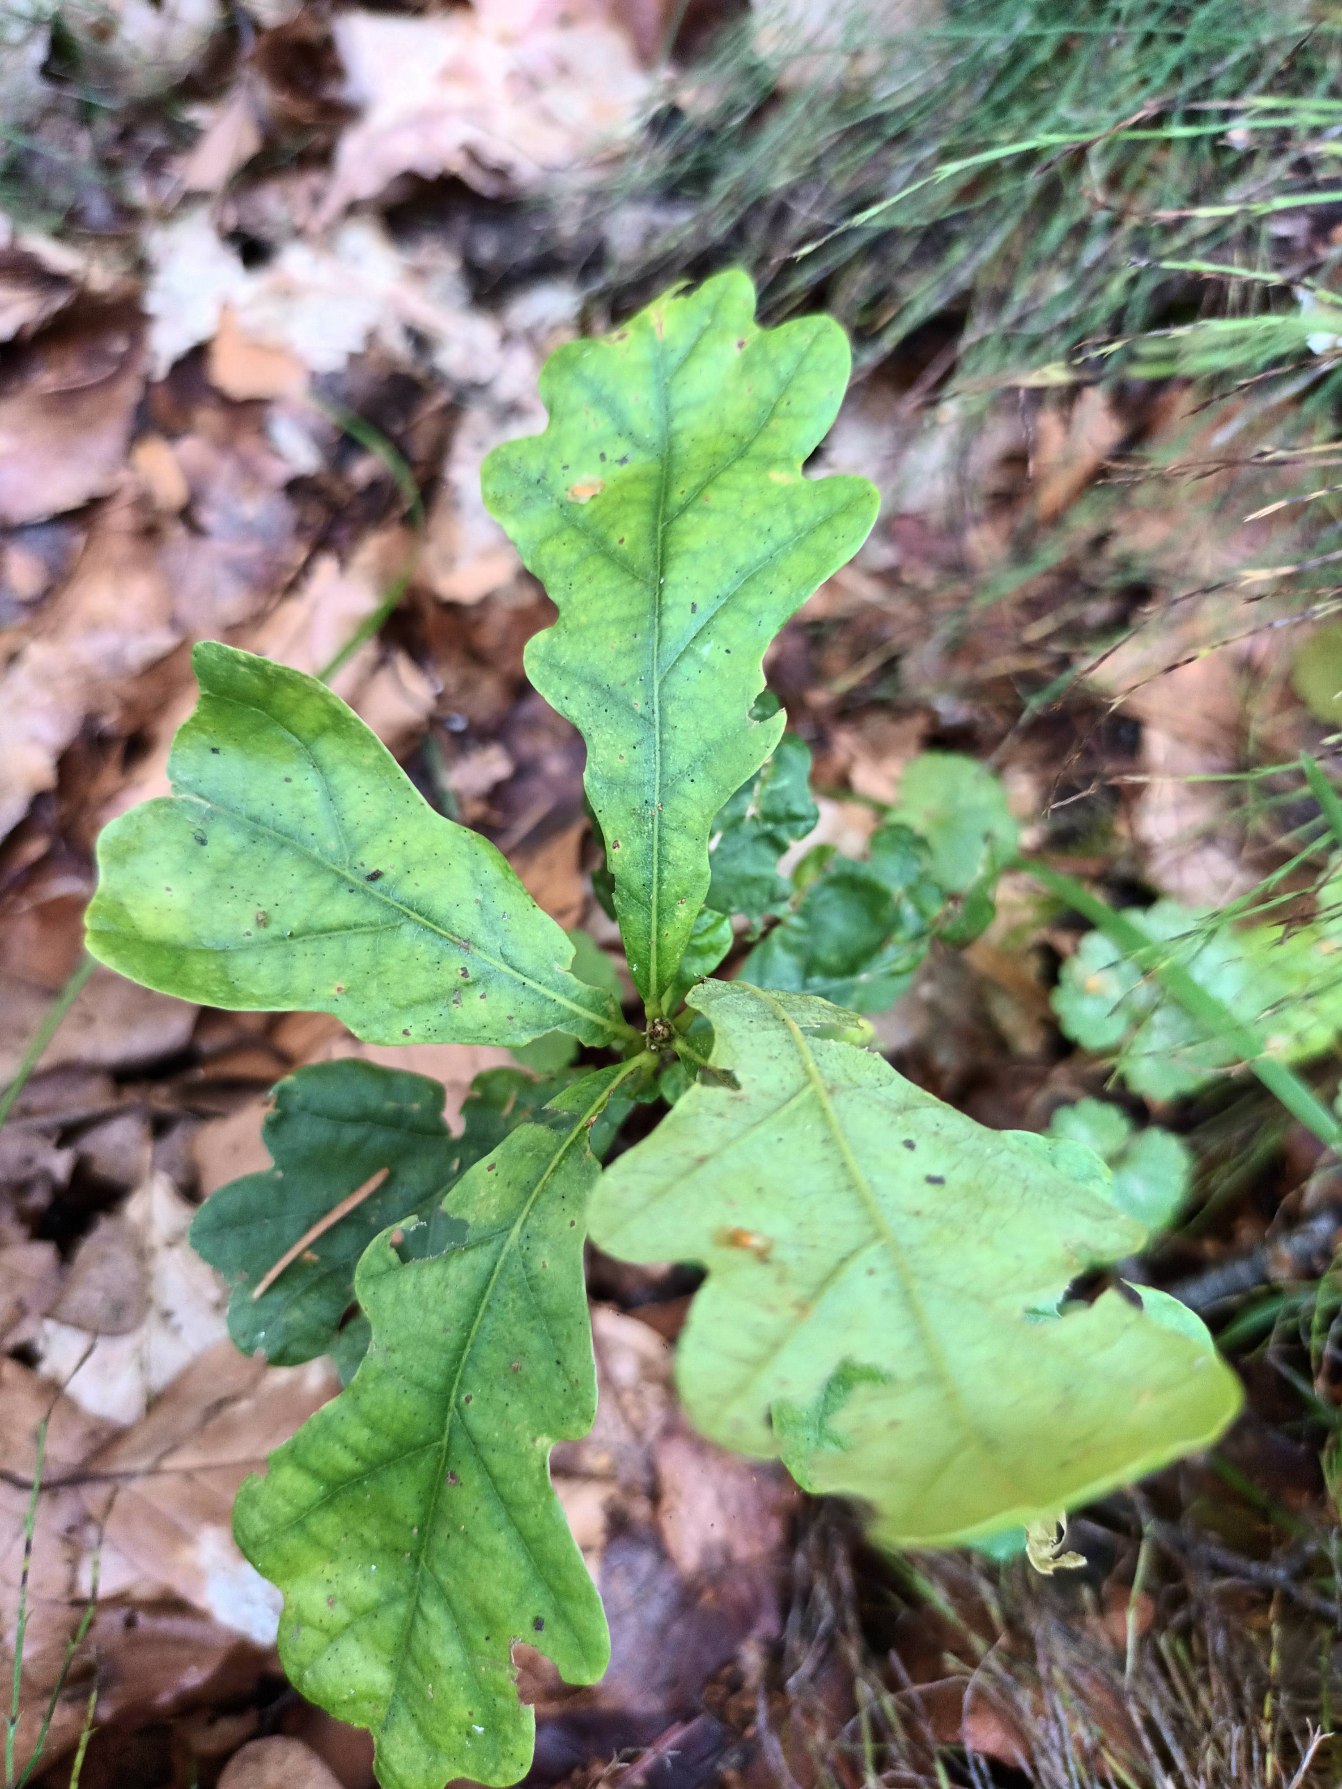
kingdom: Plantae
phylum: Tracheophyta
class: Magnoliopsida
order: Fagales
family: Fagaceae
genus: Quercus
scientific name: Quercus robur
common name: Stilk-eg/almindelig eg
